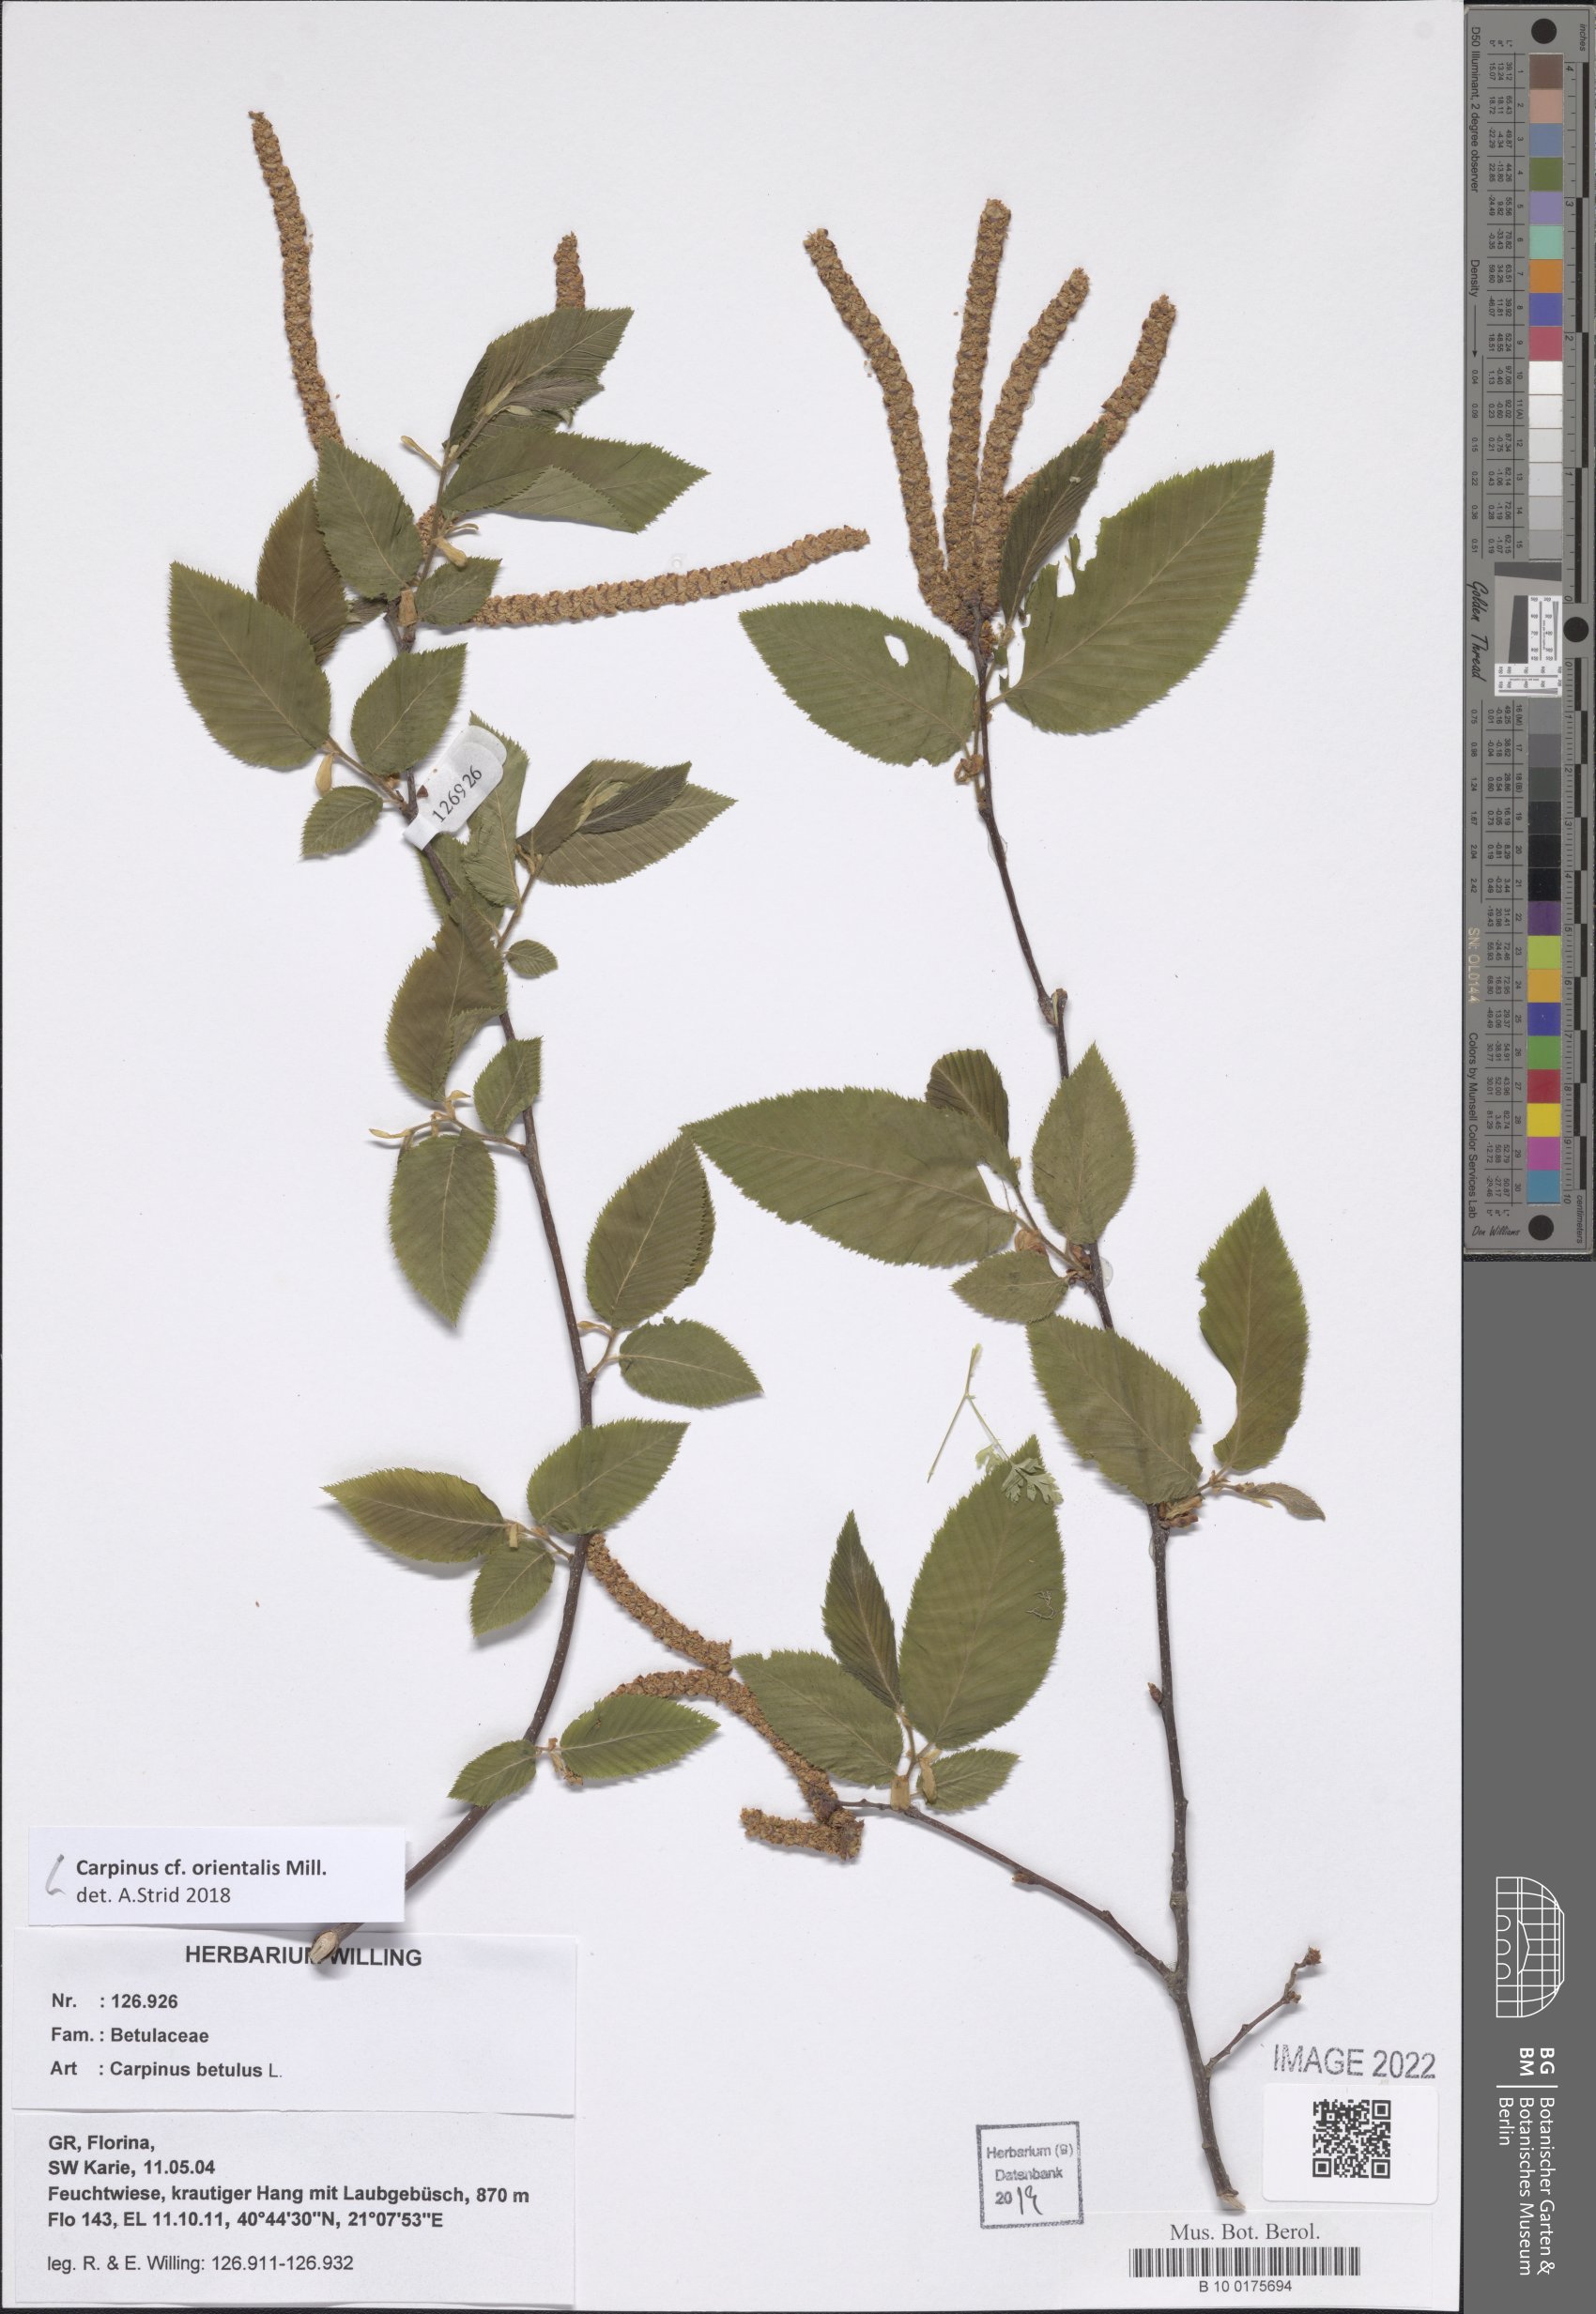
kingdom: Plantae
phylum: Tracheophyta
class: Magnoliopsida
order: Fagales
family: Betulaceae
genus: Carpinus
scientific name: Carpinus orientalis
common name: Eastern hornbeam
